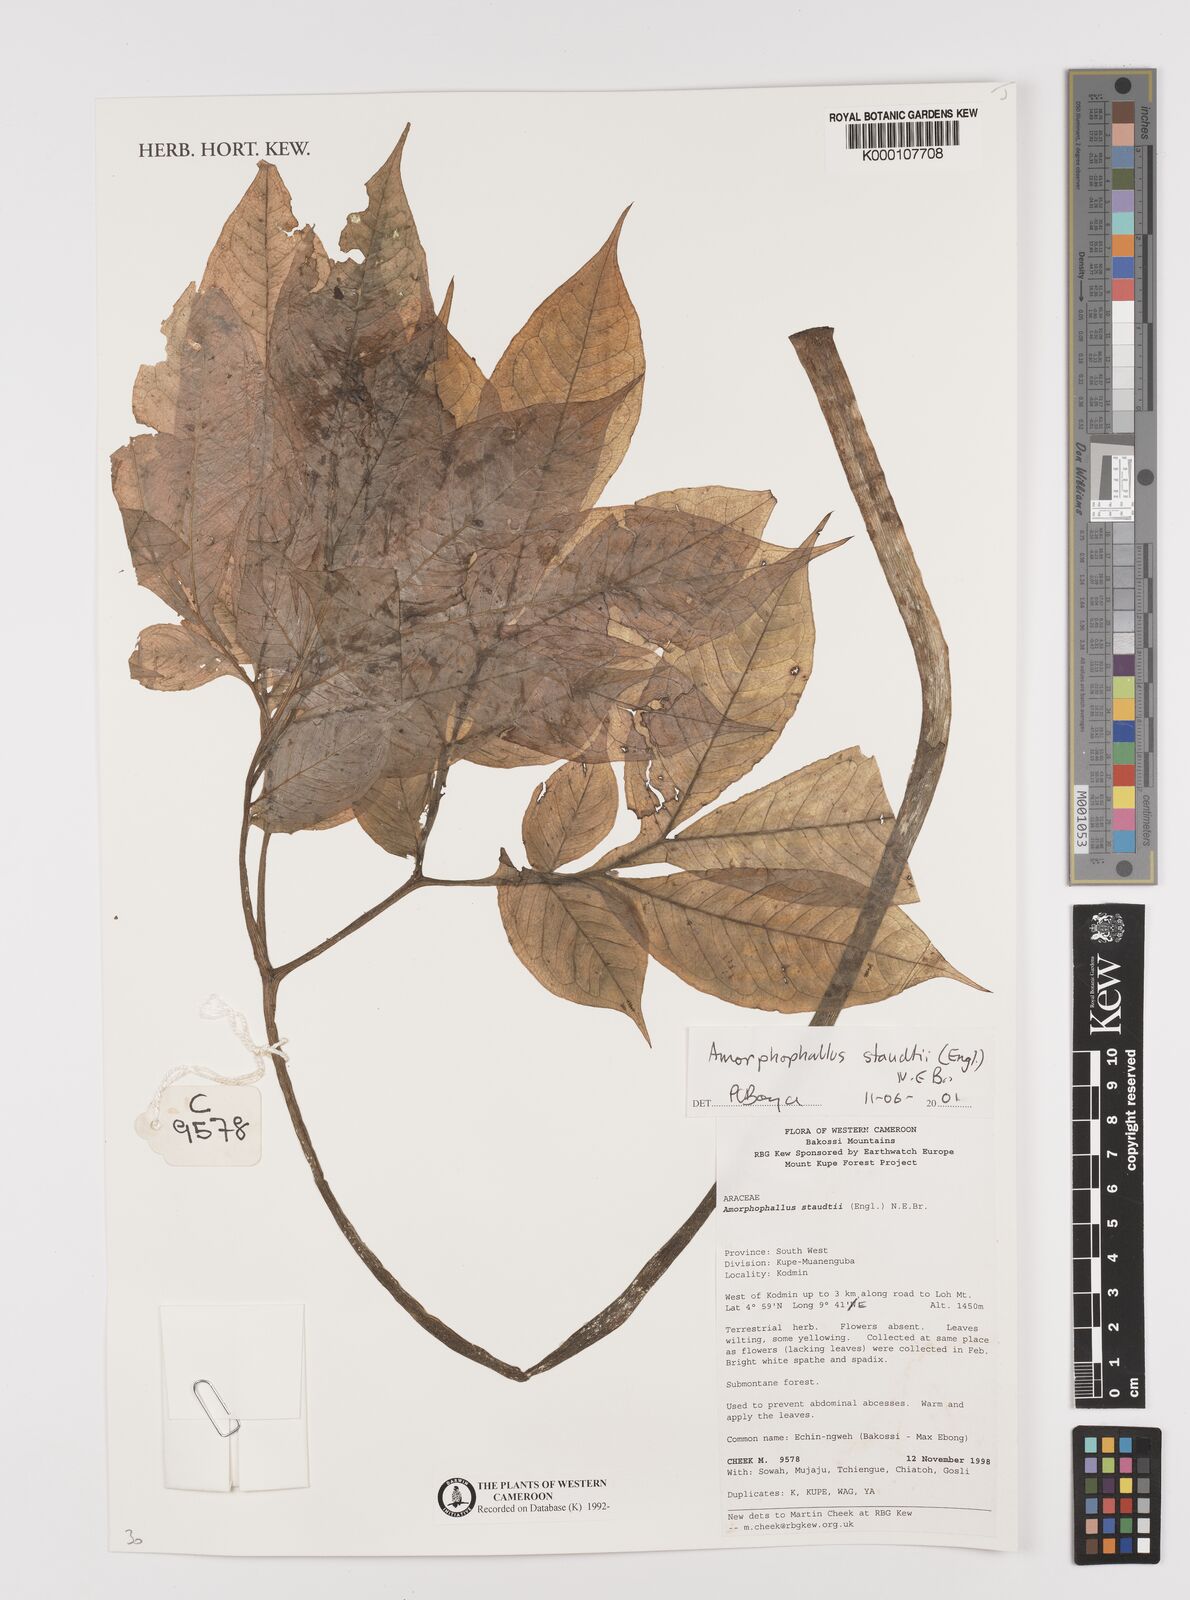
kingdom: Plantae
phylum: Tracheophyta
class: Liliopsida
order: Alismatales
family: Araceae
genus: Amorphophallus
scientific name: Amorphophallus staudtii
